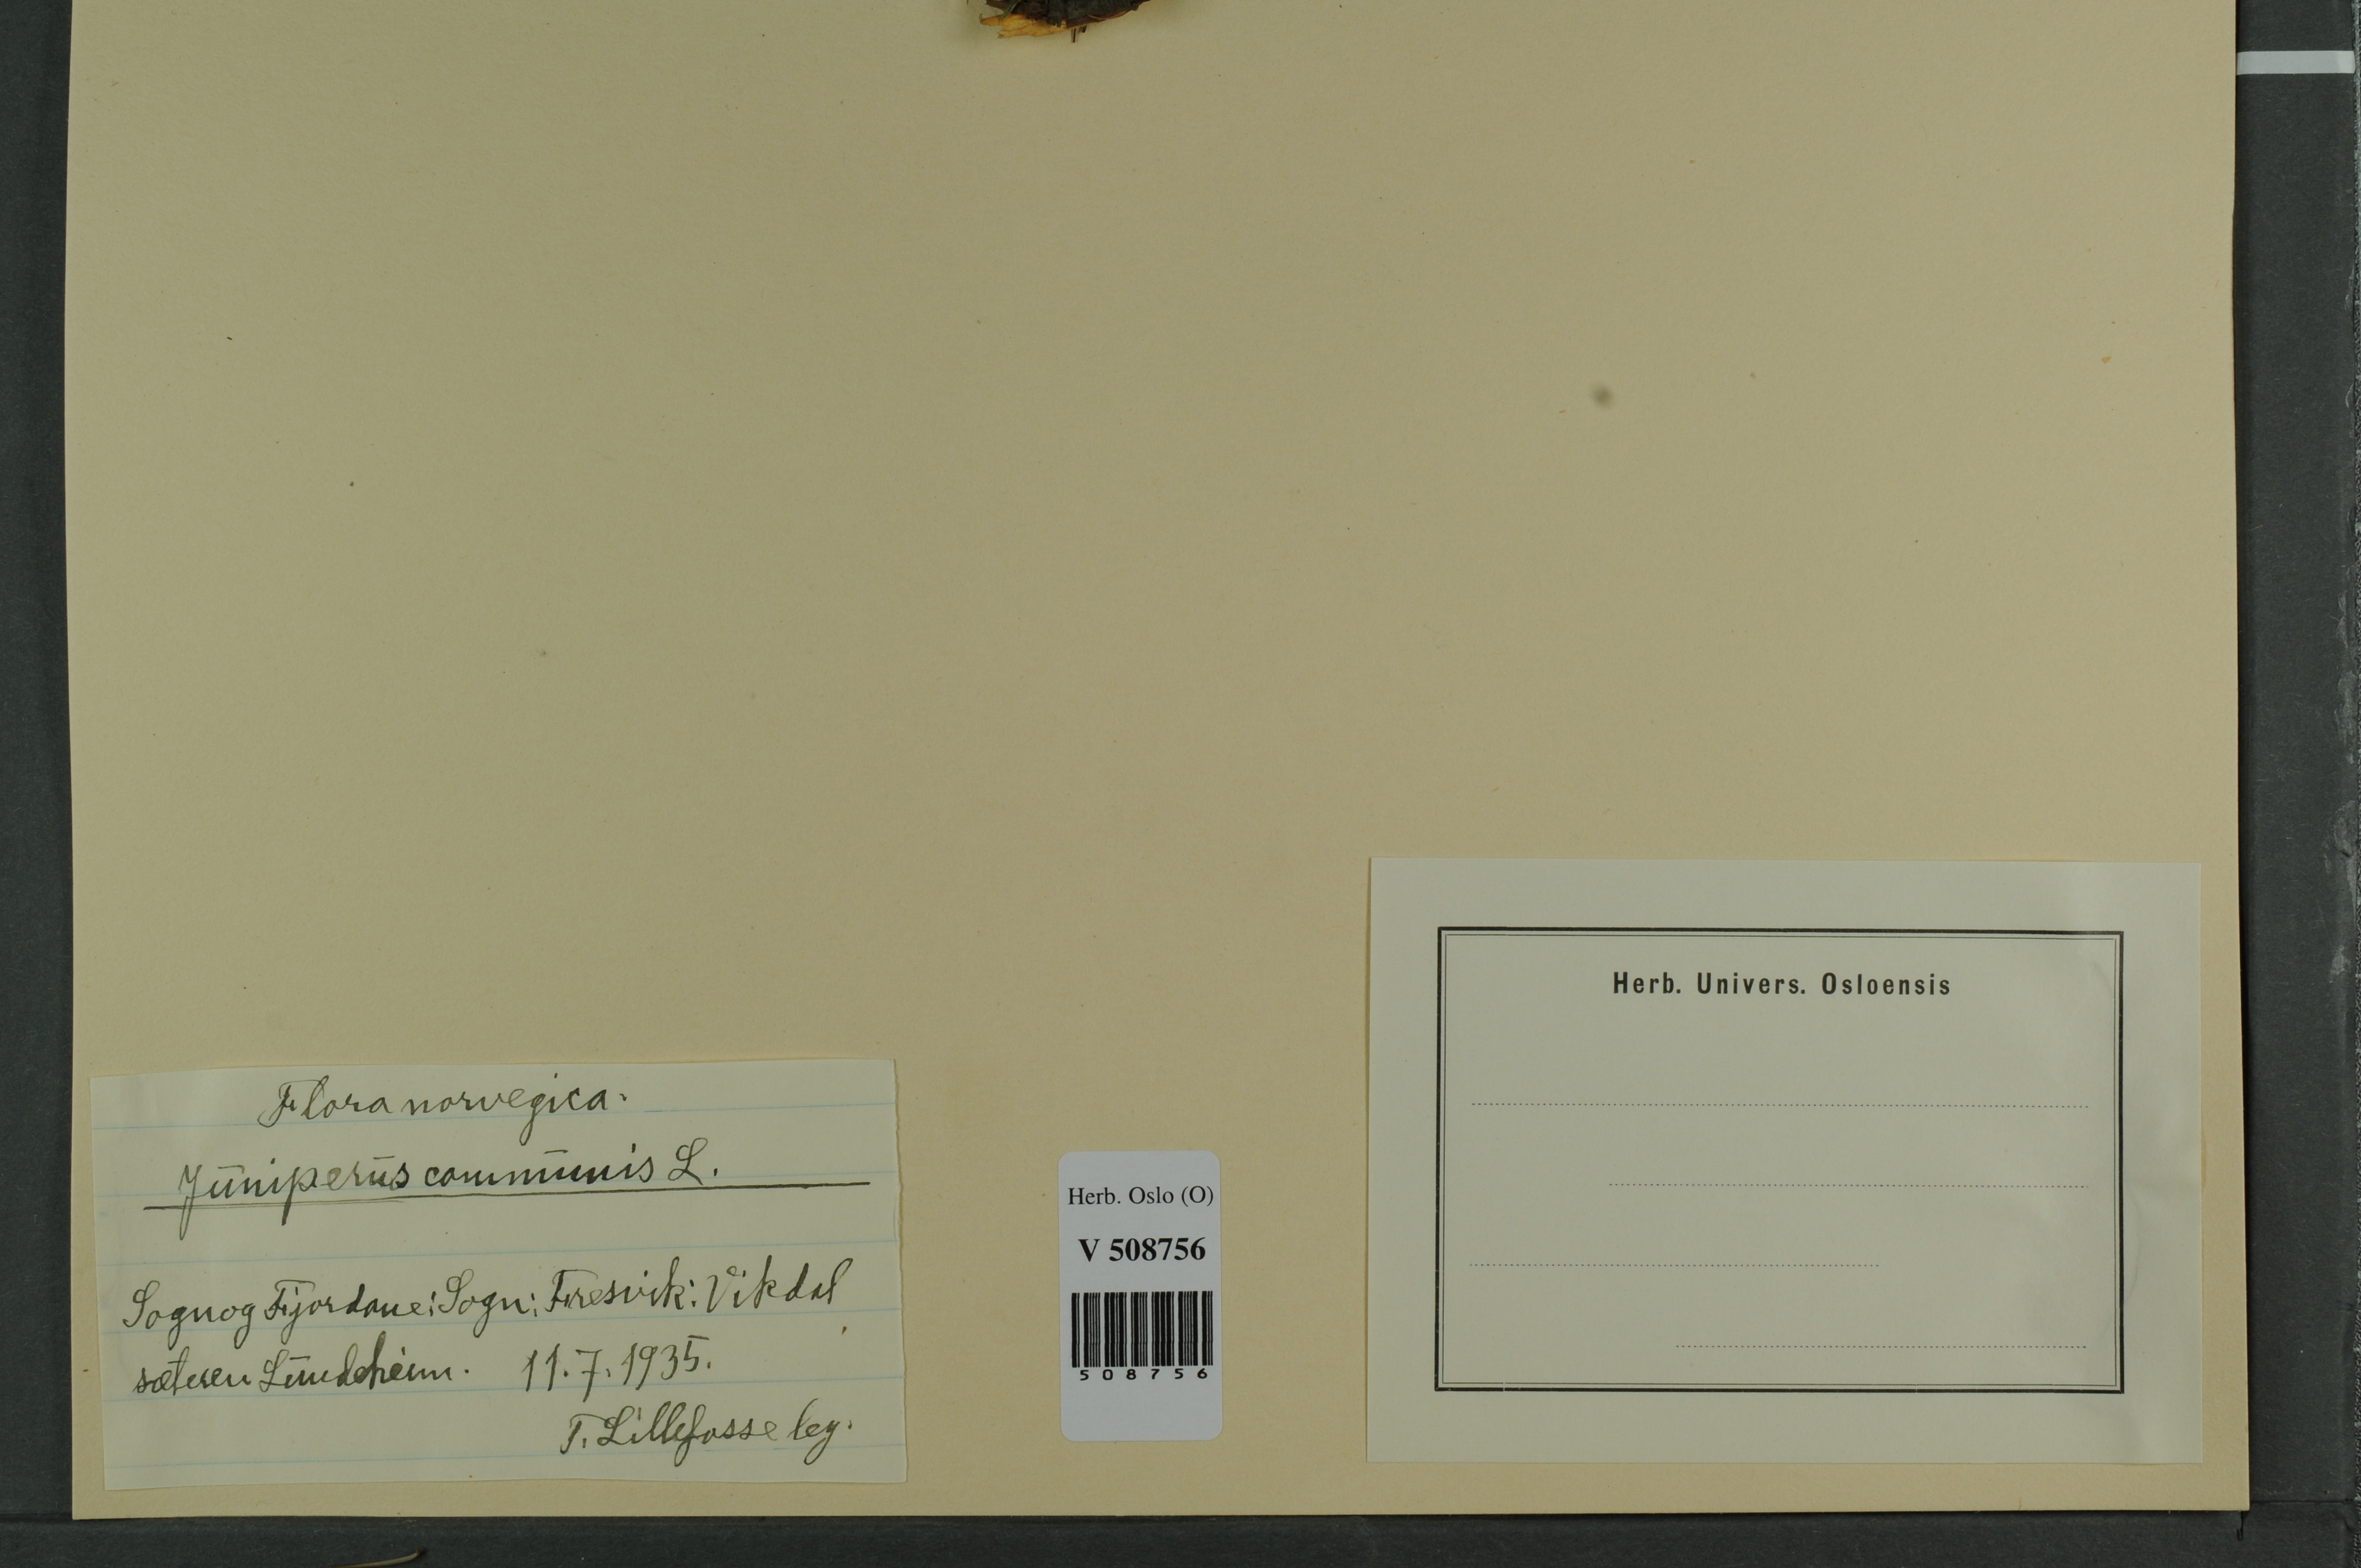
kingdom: Plantae
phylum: Tracheophyta
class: Pinopsida
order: Pinales
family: Cupressaceae
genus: Juniperus
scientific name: Juniperus communis
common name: Common juniper
